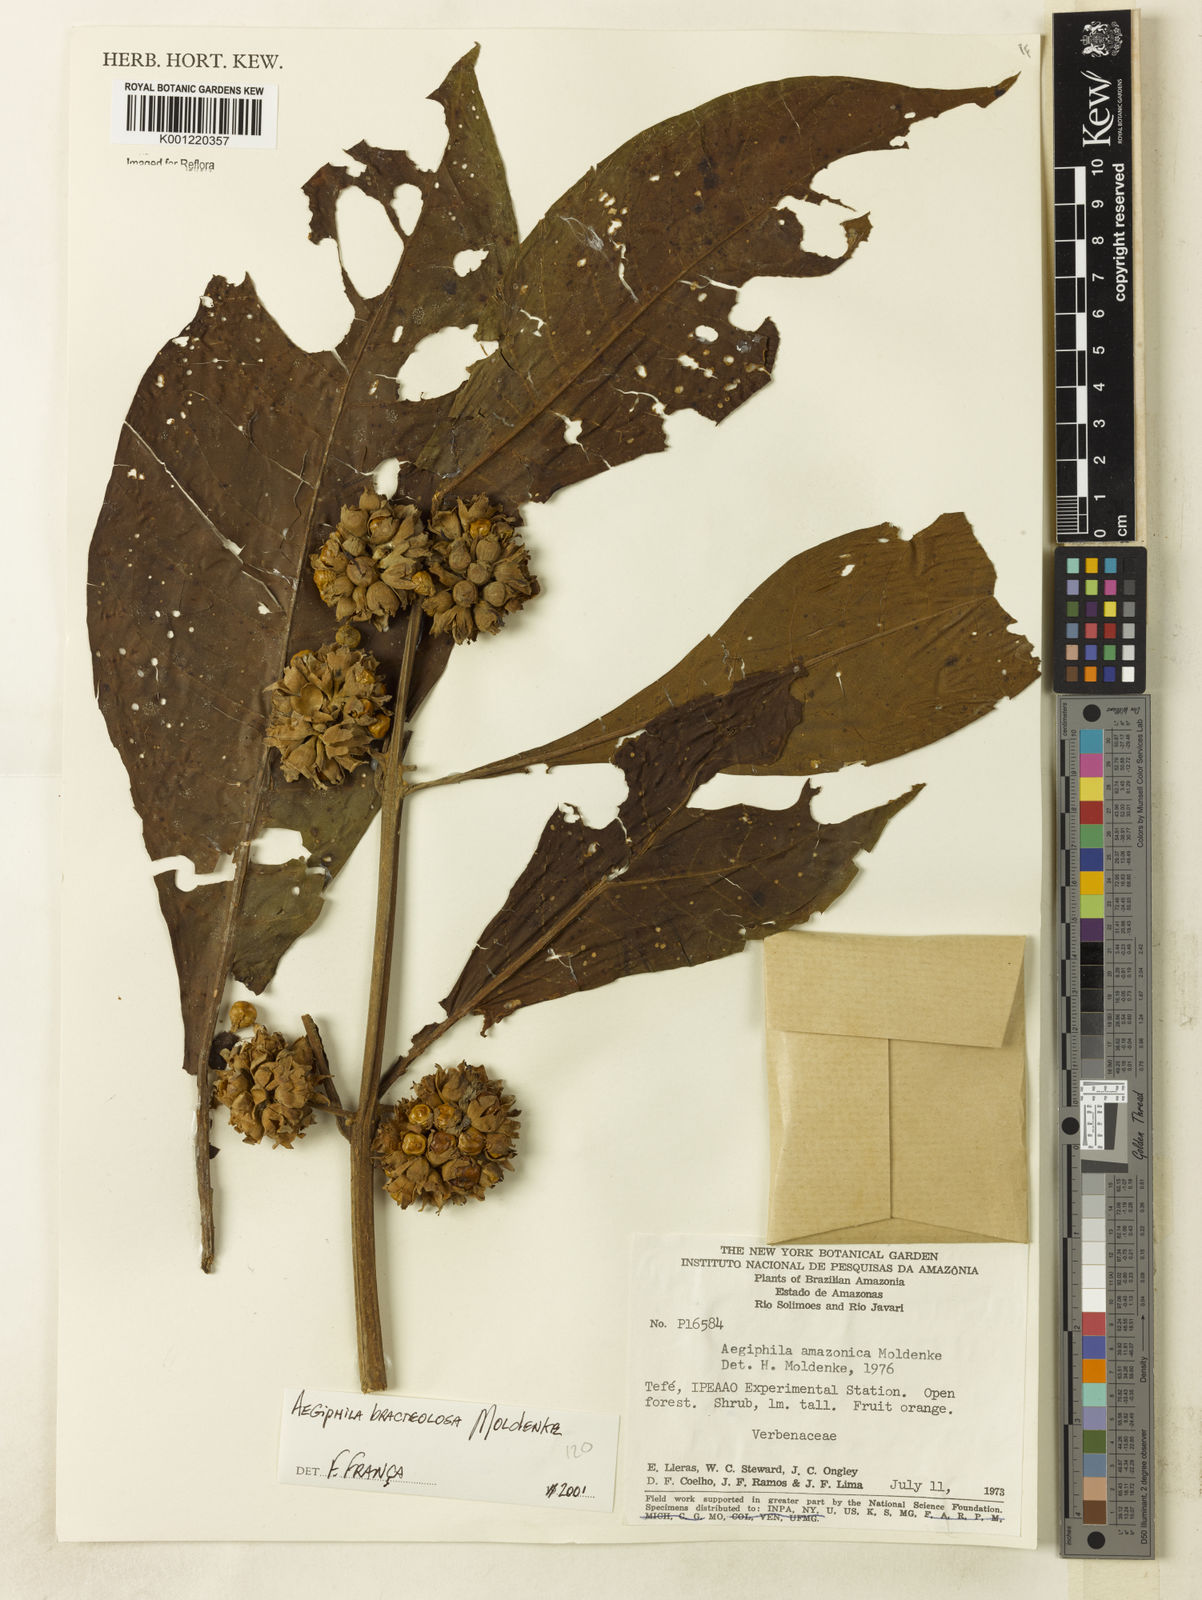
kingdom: Plantae
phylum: Tracheophyta
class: Magnoliopsida
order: Lamiales
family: Lamiaceae
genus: Aegiphila
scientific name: Aegiphila bracteolosa
